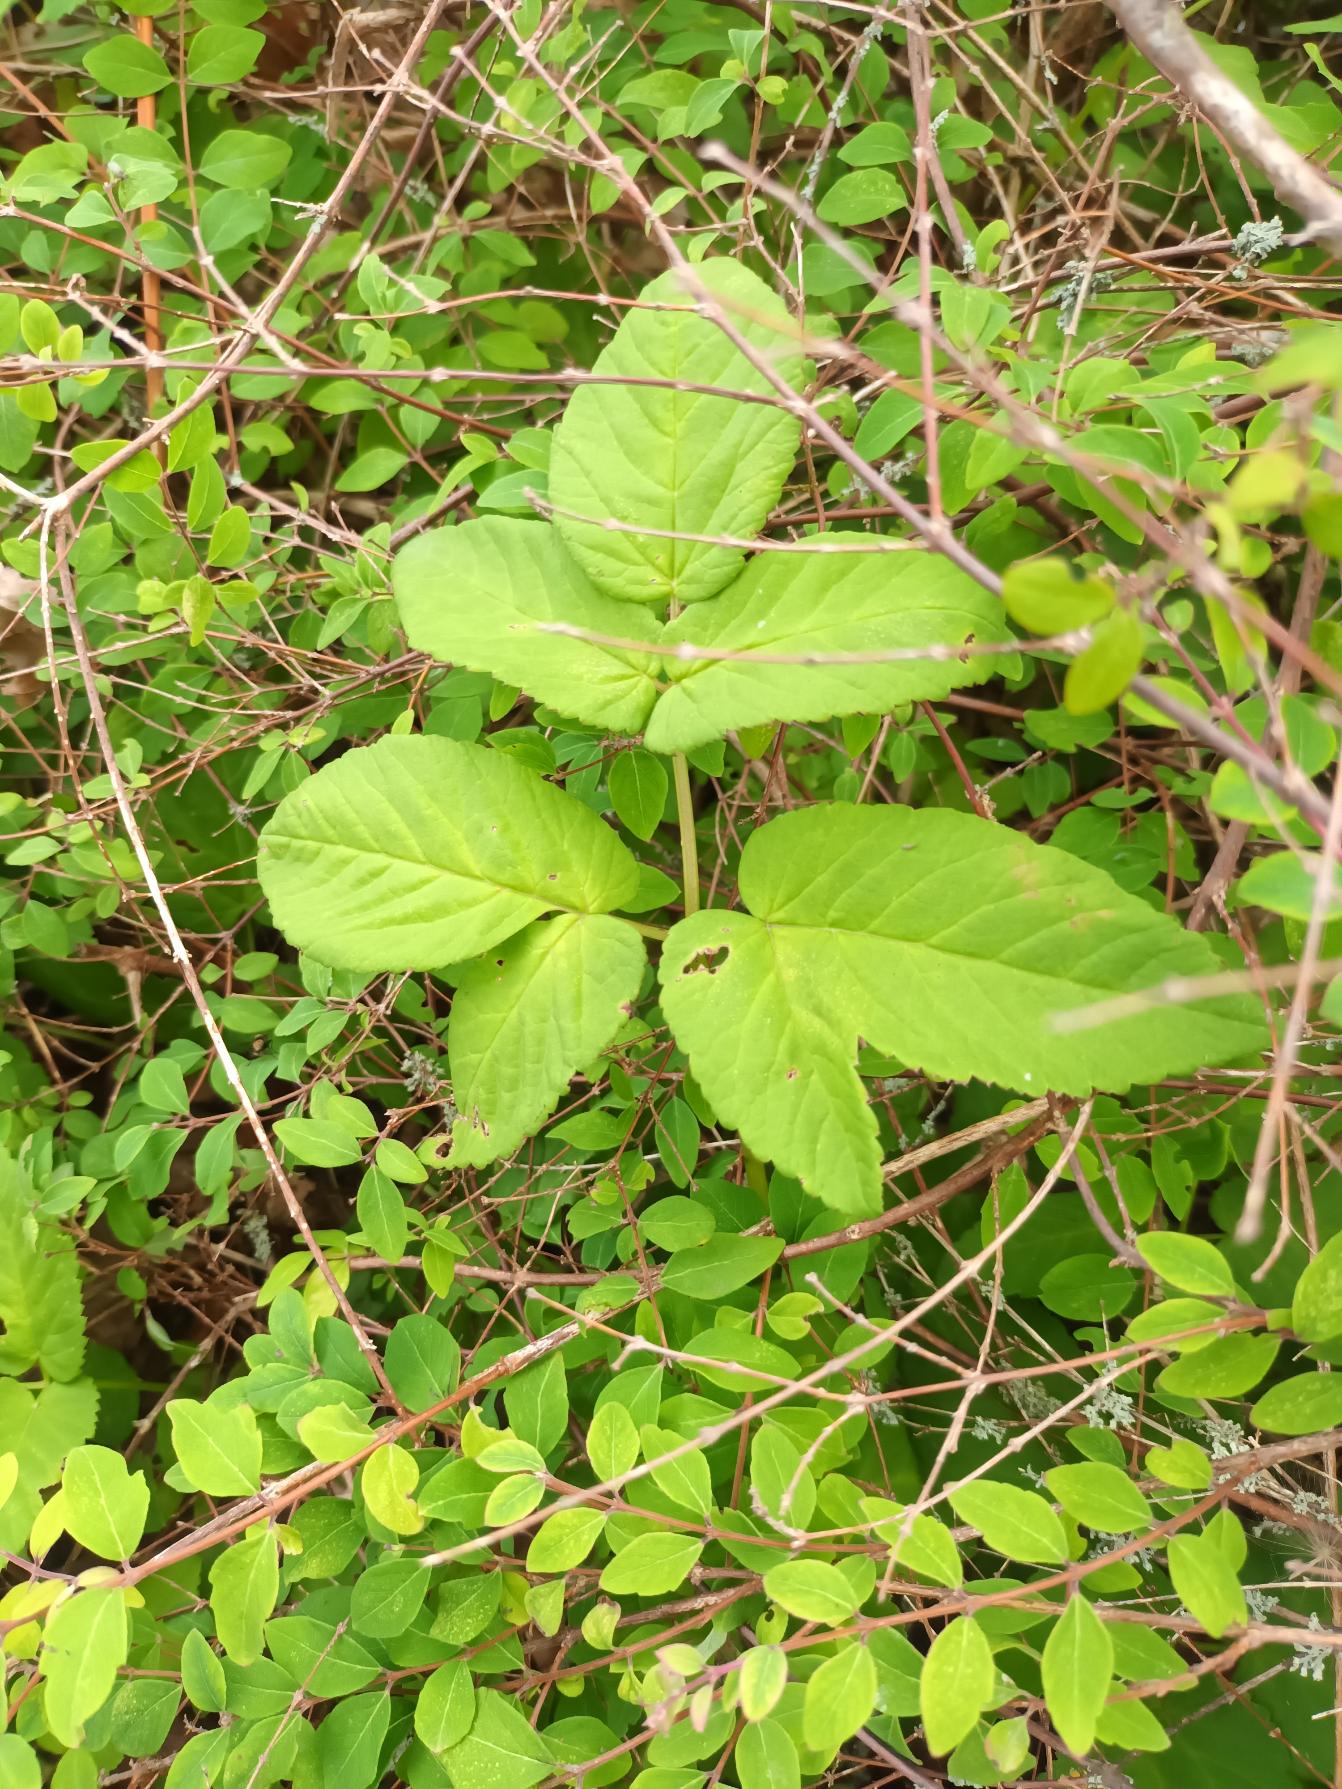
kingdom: Plantae
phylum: Tracheophyta
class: Magnoliopsida
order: Apiales
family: Apiaceae
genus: Aegopodium
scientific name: Aegopodium podagraria
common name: Skvalderkål
